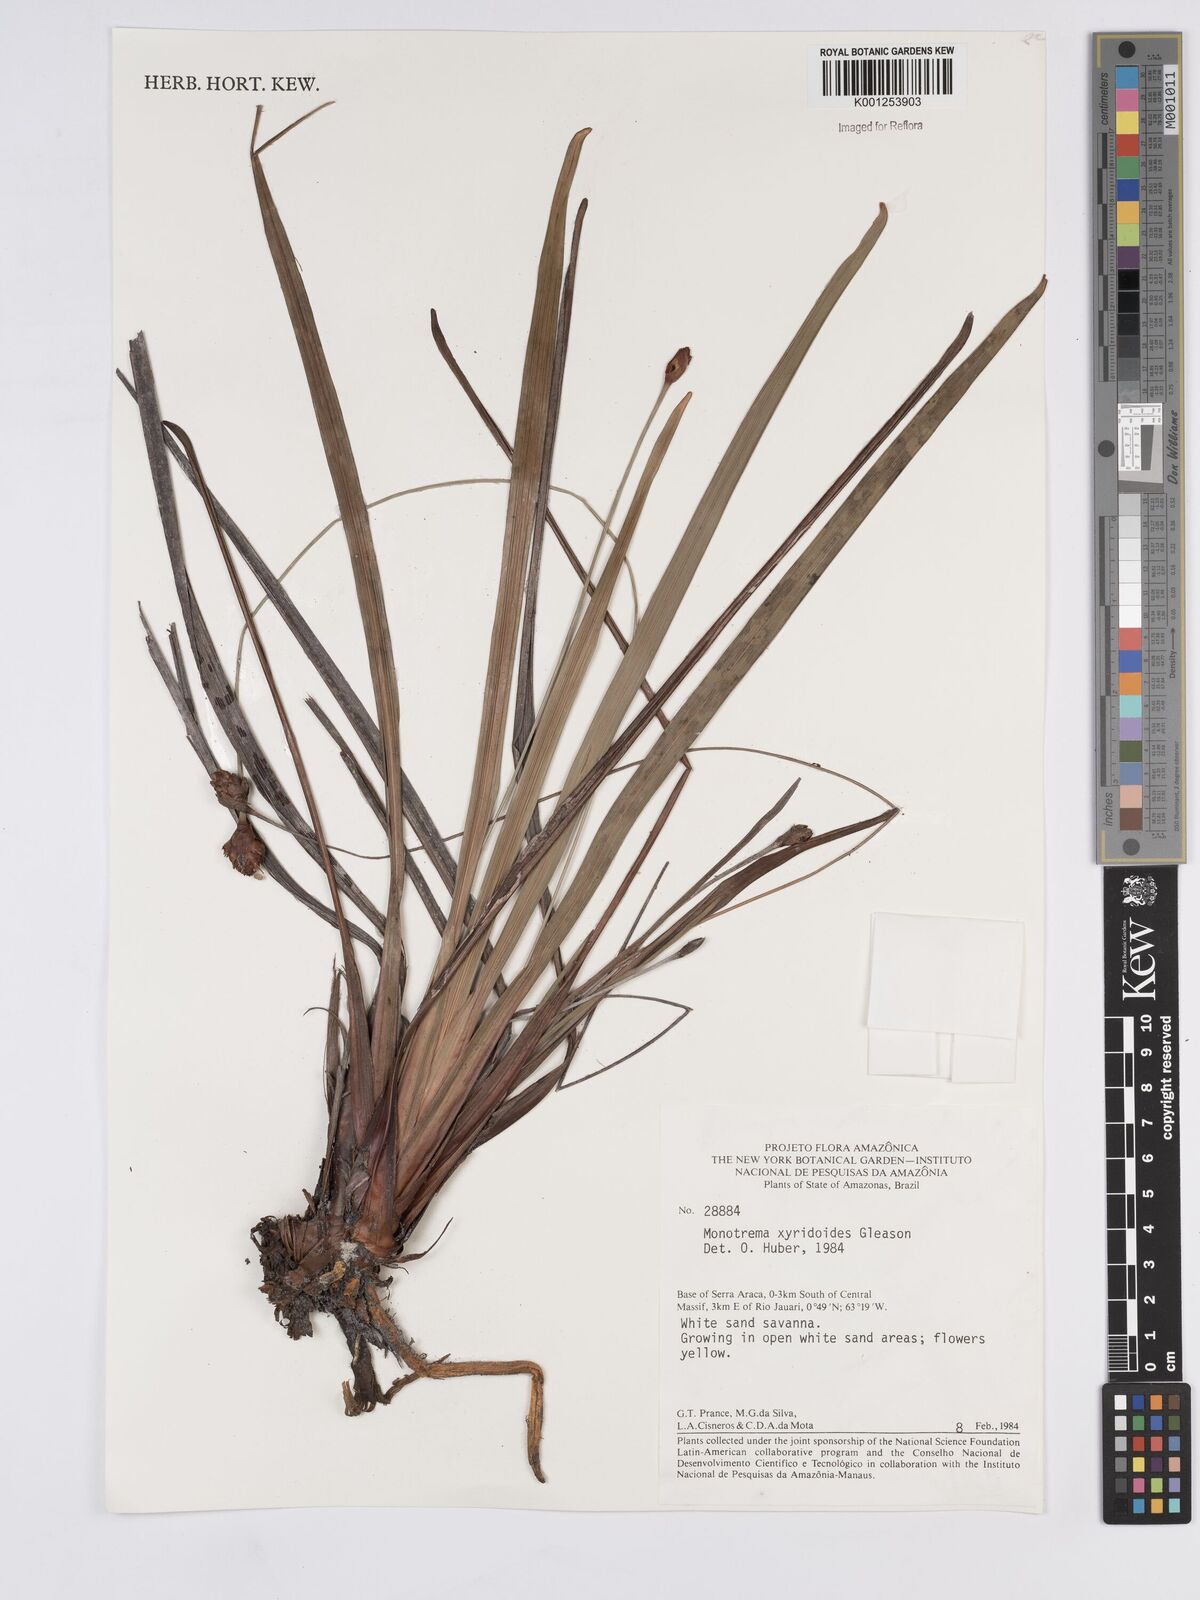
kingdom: Plantae
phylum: Tracheophyta
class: Liliopsida
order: Poales
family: Rapateaceae
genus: Monotrema
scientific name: Monotrema xyridoides
